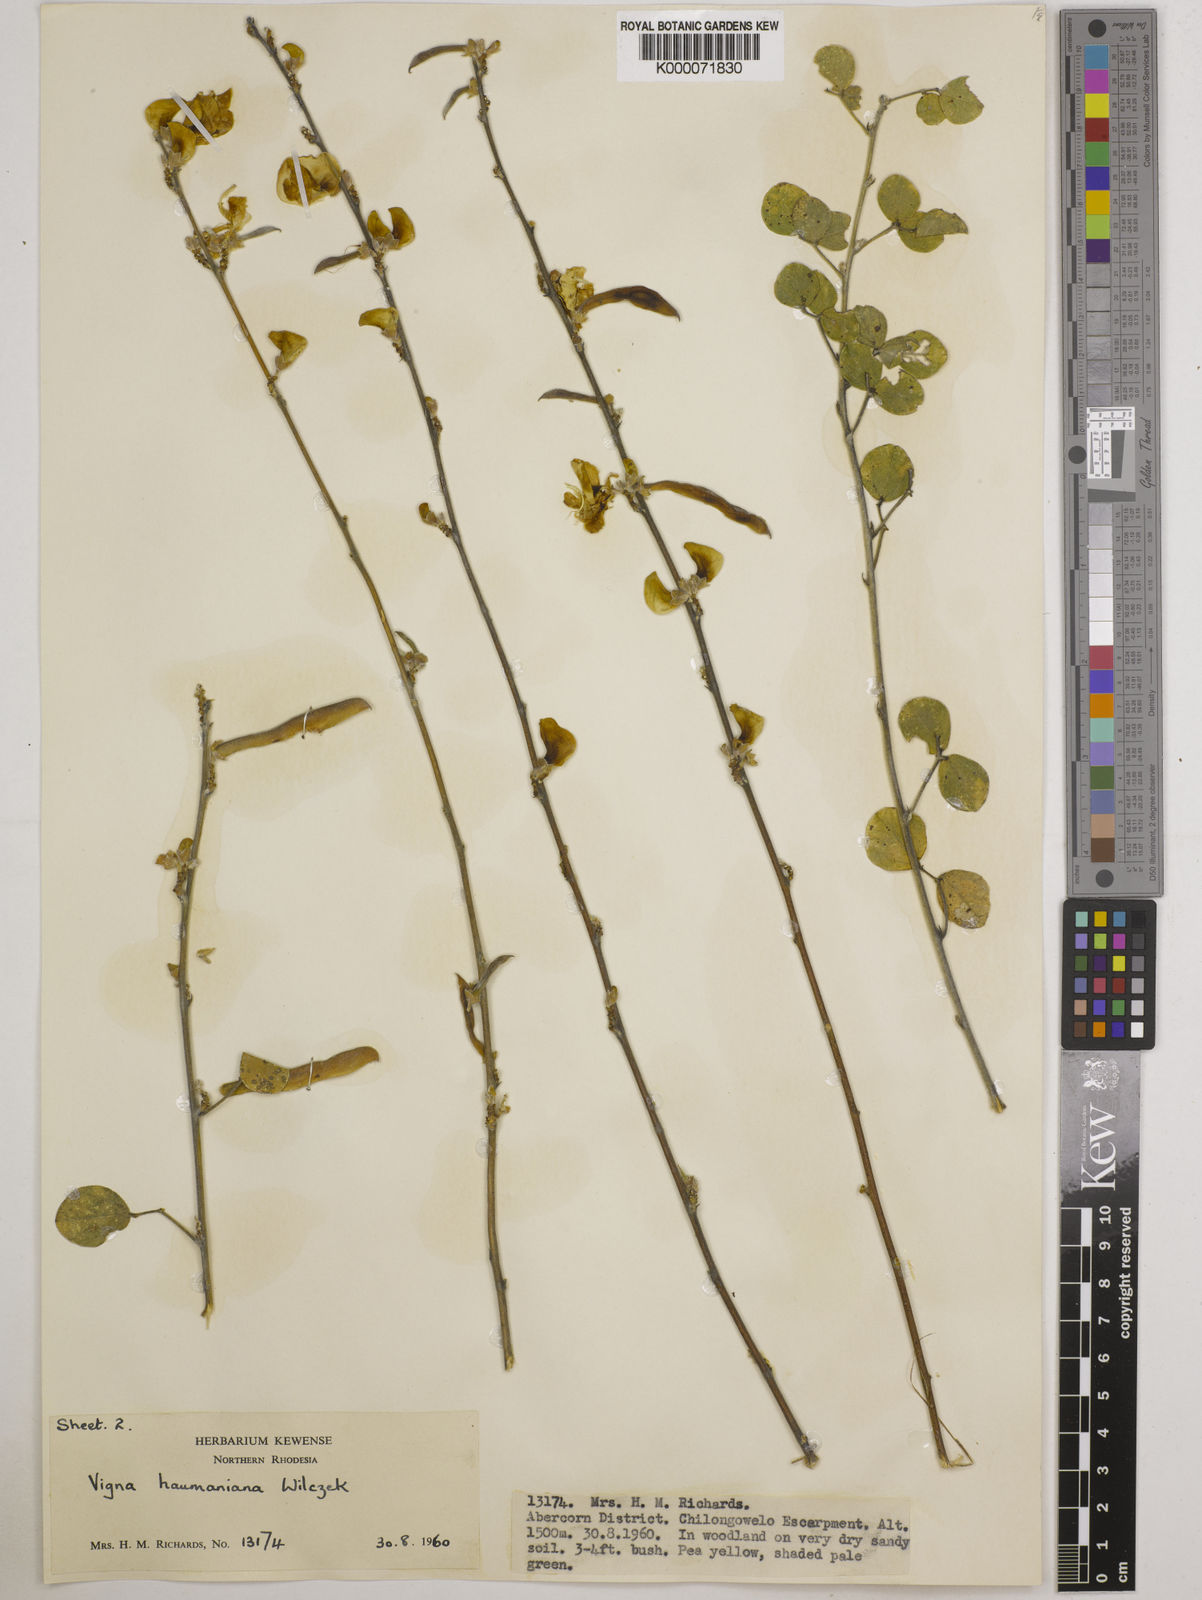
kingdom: Plantae
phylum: Tracheophyta
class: Magnoliopsida
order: Fabales
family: Fabaceae
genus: Vigna
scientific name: Vigna haumaniana
